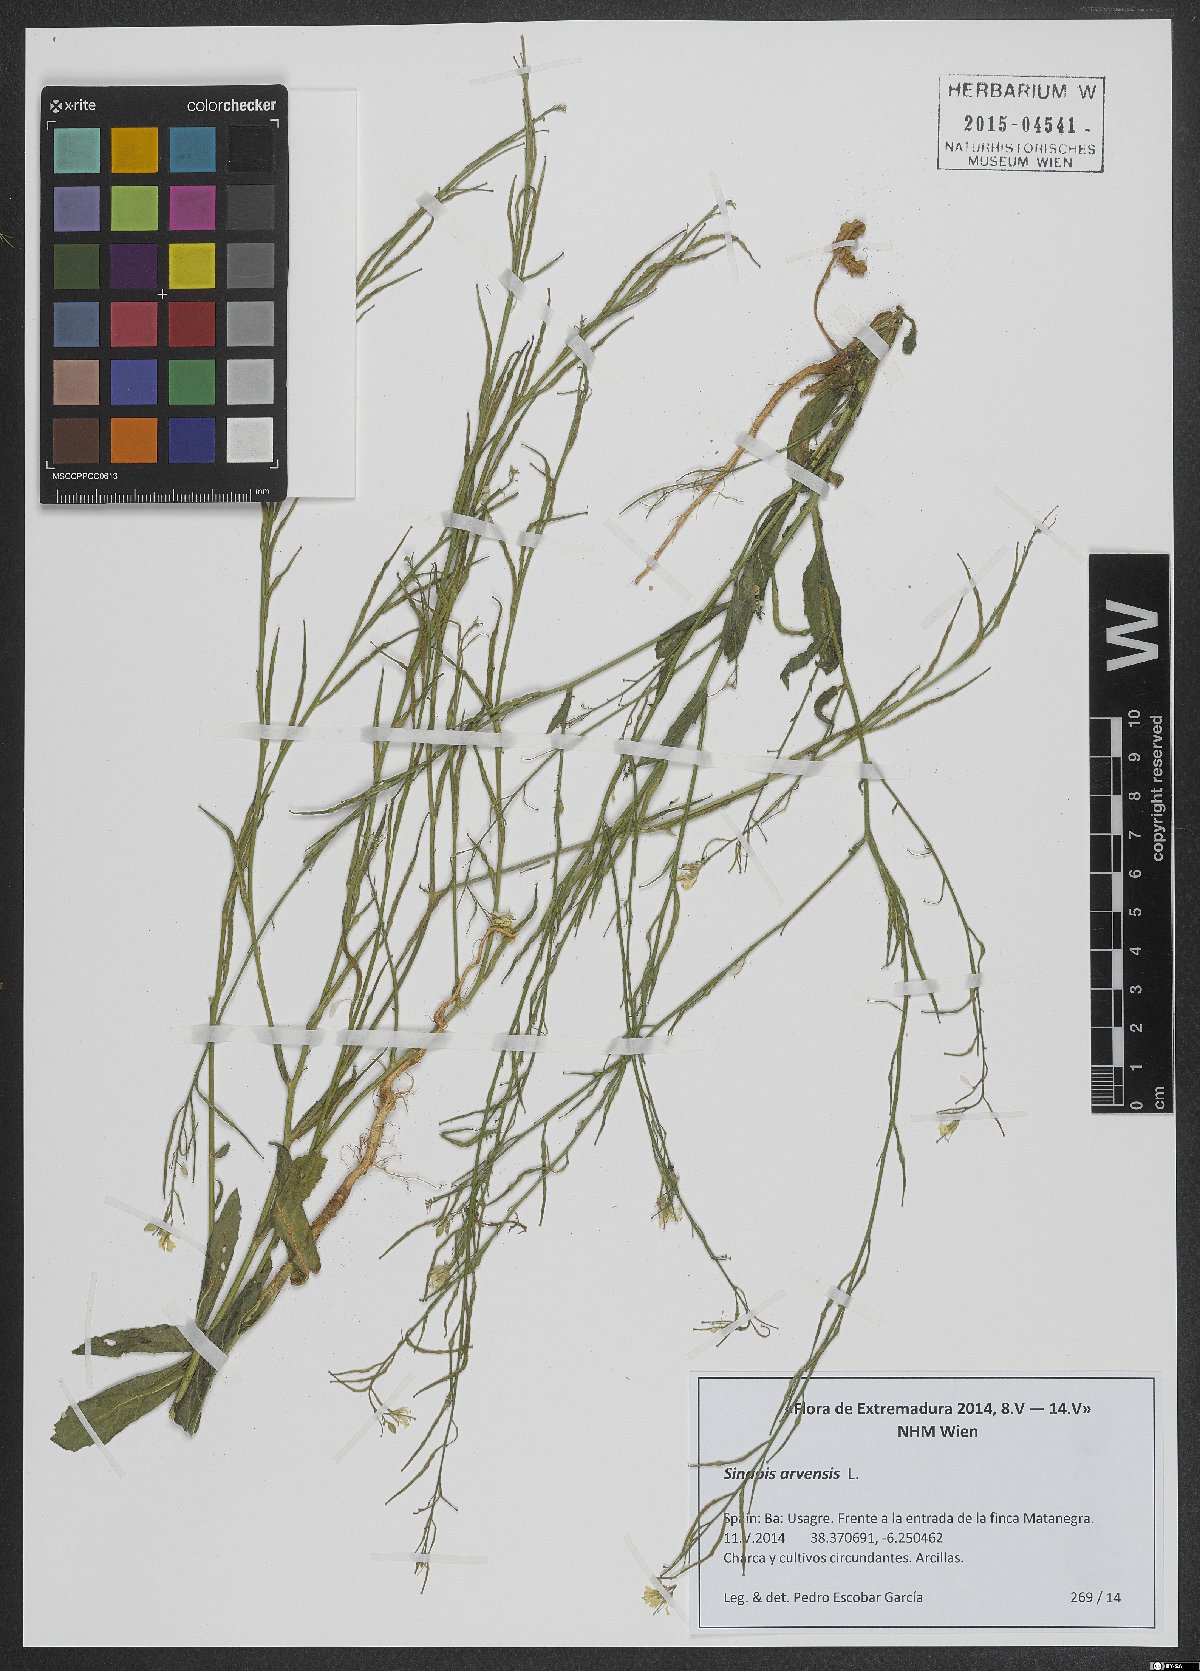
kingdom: Plantae
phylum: Tracheophyta
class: Magnoliopsida
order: Brassicales
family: Brassicaceae
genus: Sinapis
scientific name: Sinapis arvensis
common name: Charlock
